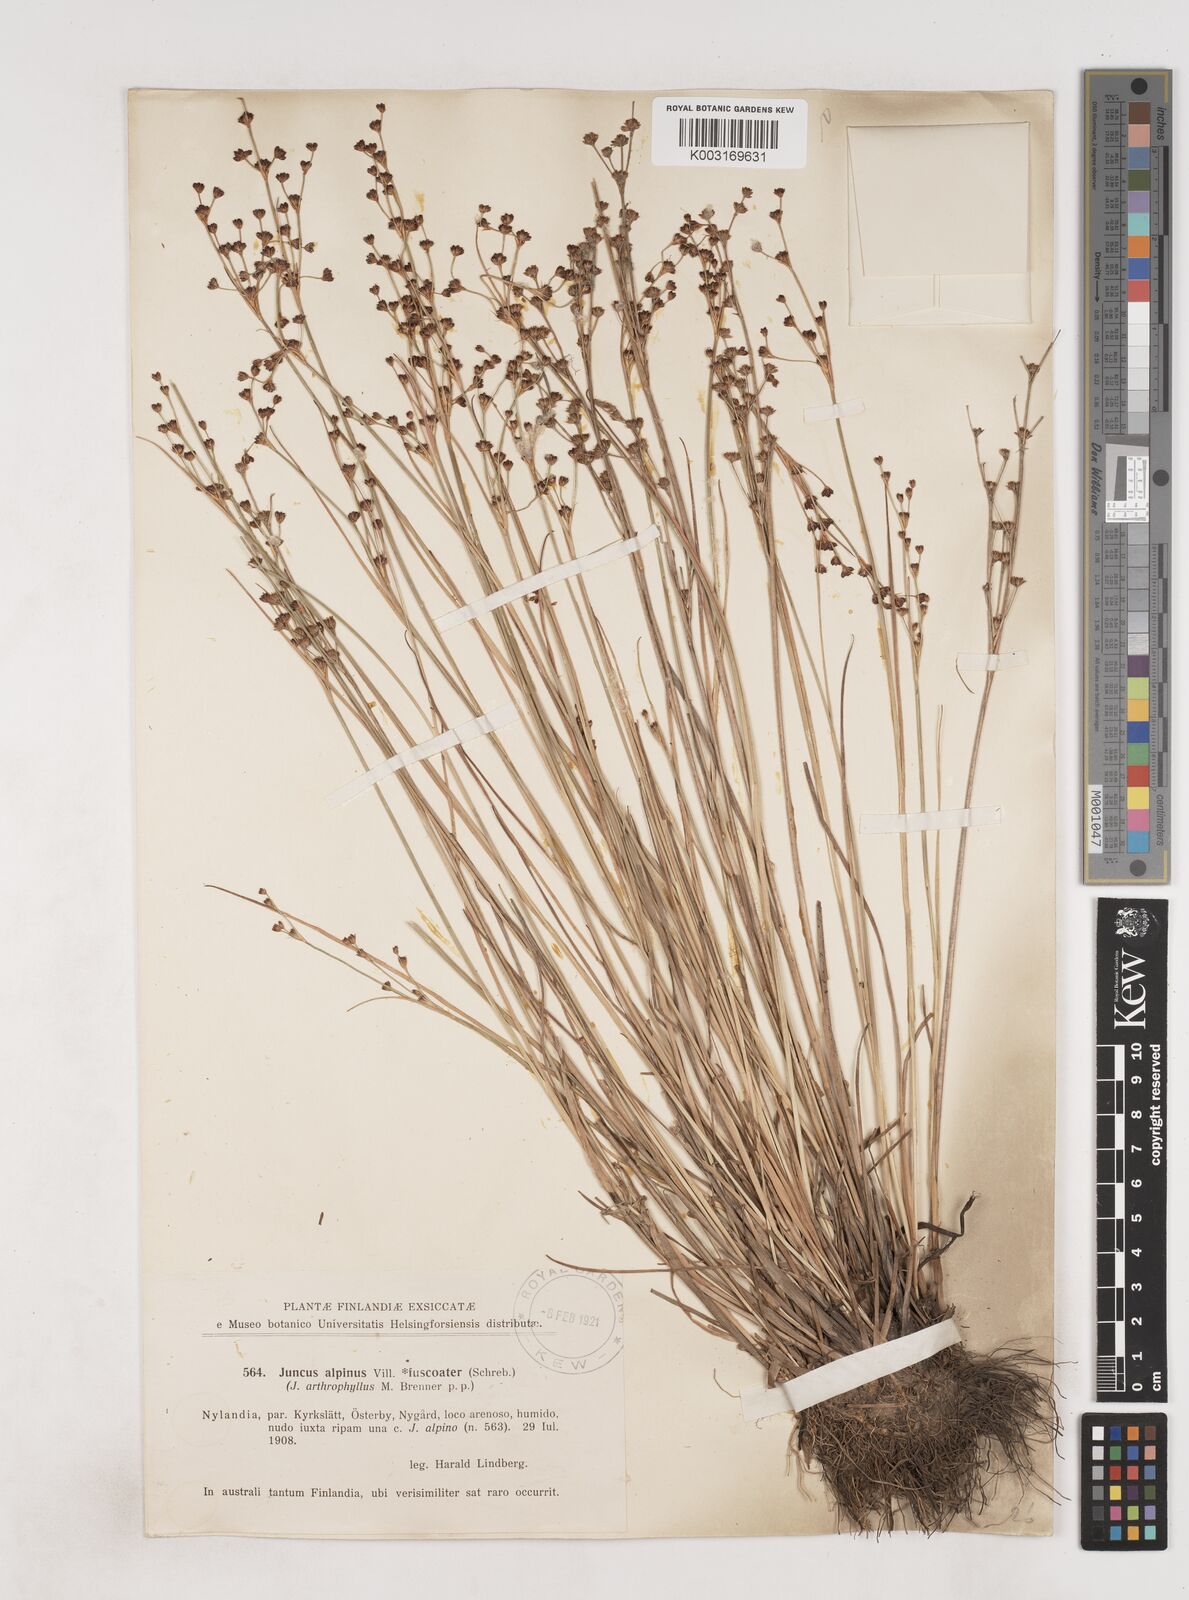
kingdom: Plantae
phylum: Tracheophyta
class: Liliopsida
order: Poales
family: Juncaceae
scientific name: Juncaceae
